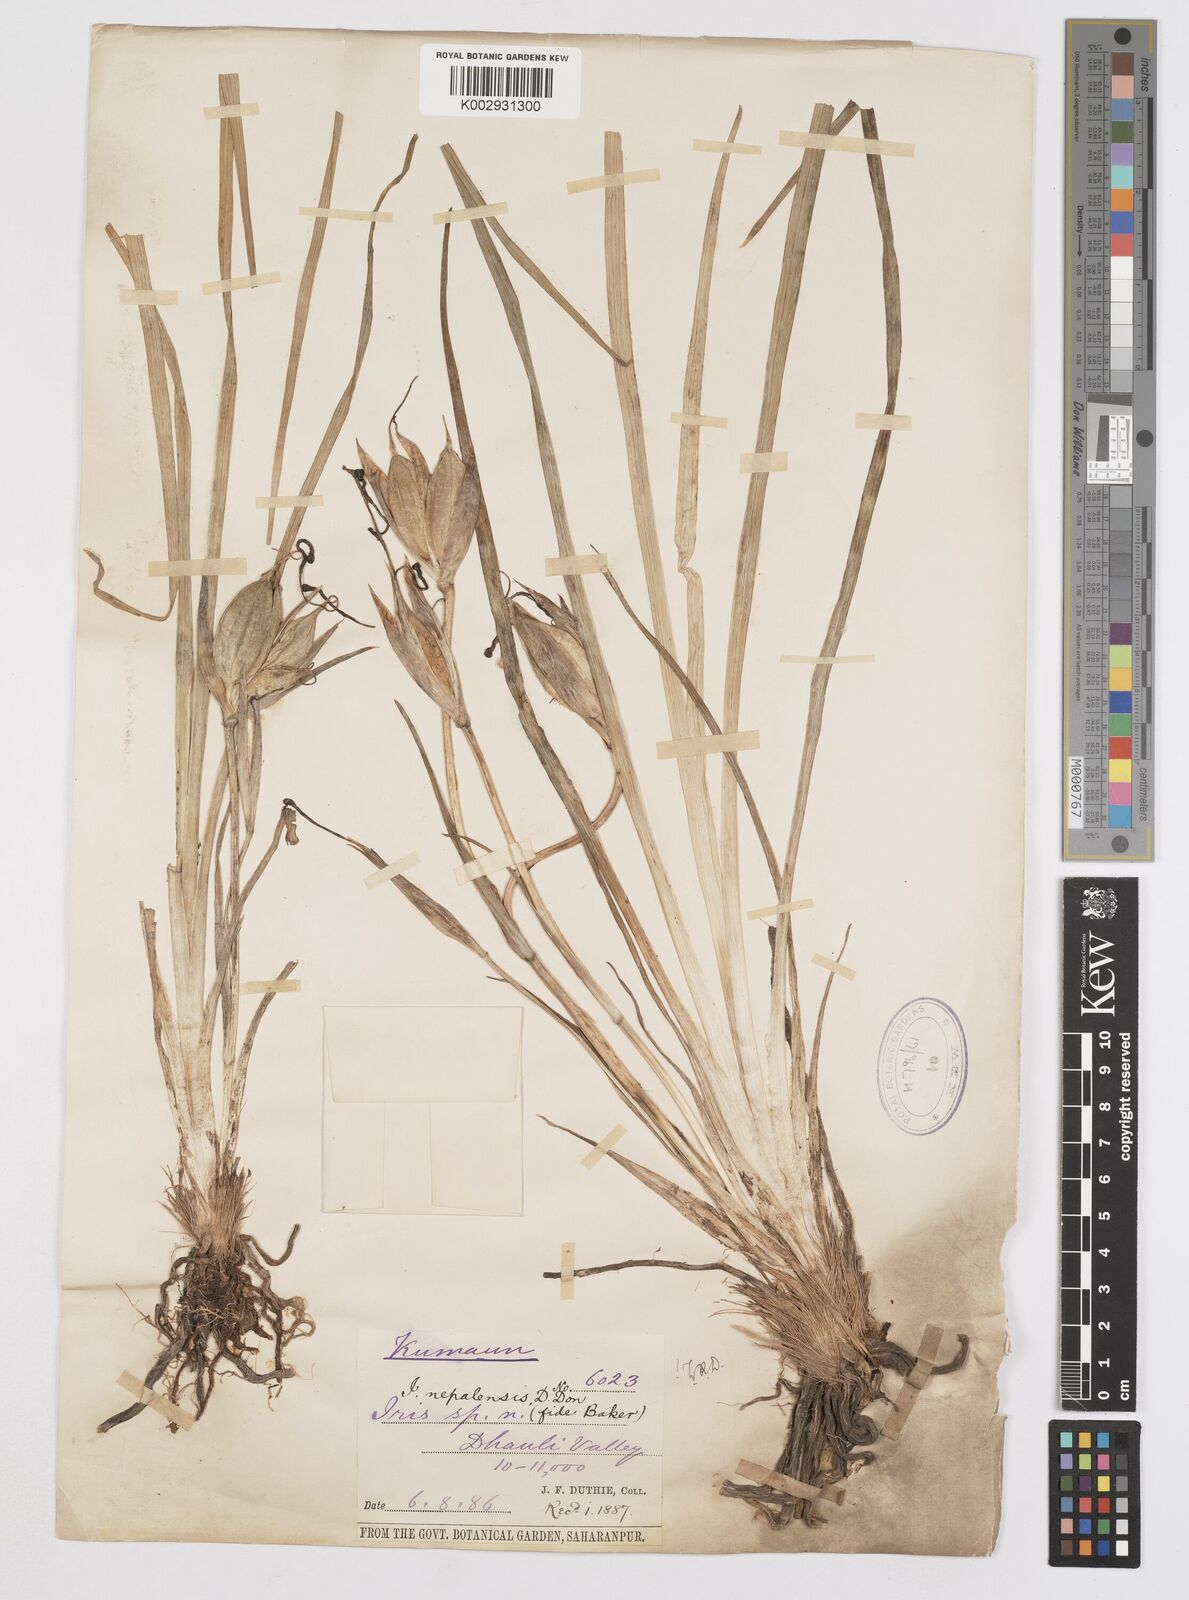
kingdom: Plantae
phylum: Tracheophyta
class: Liliopsida
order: Asparagales
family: Iridaceae
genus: Iris
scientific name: Iris decora
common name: Nepal iris
